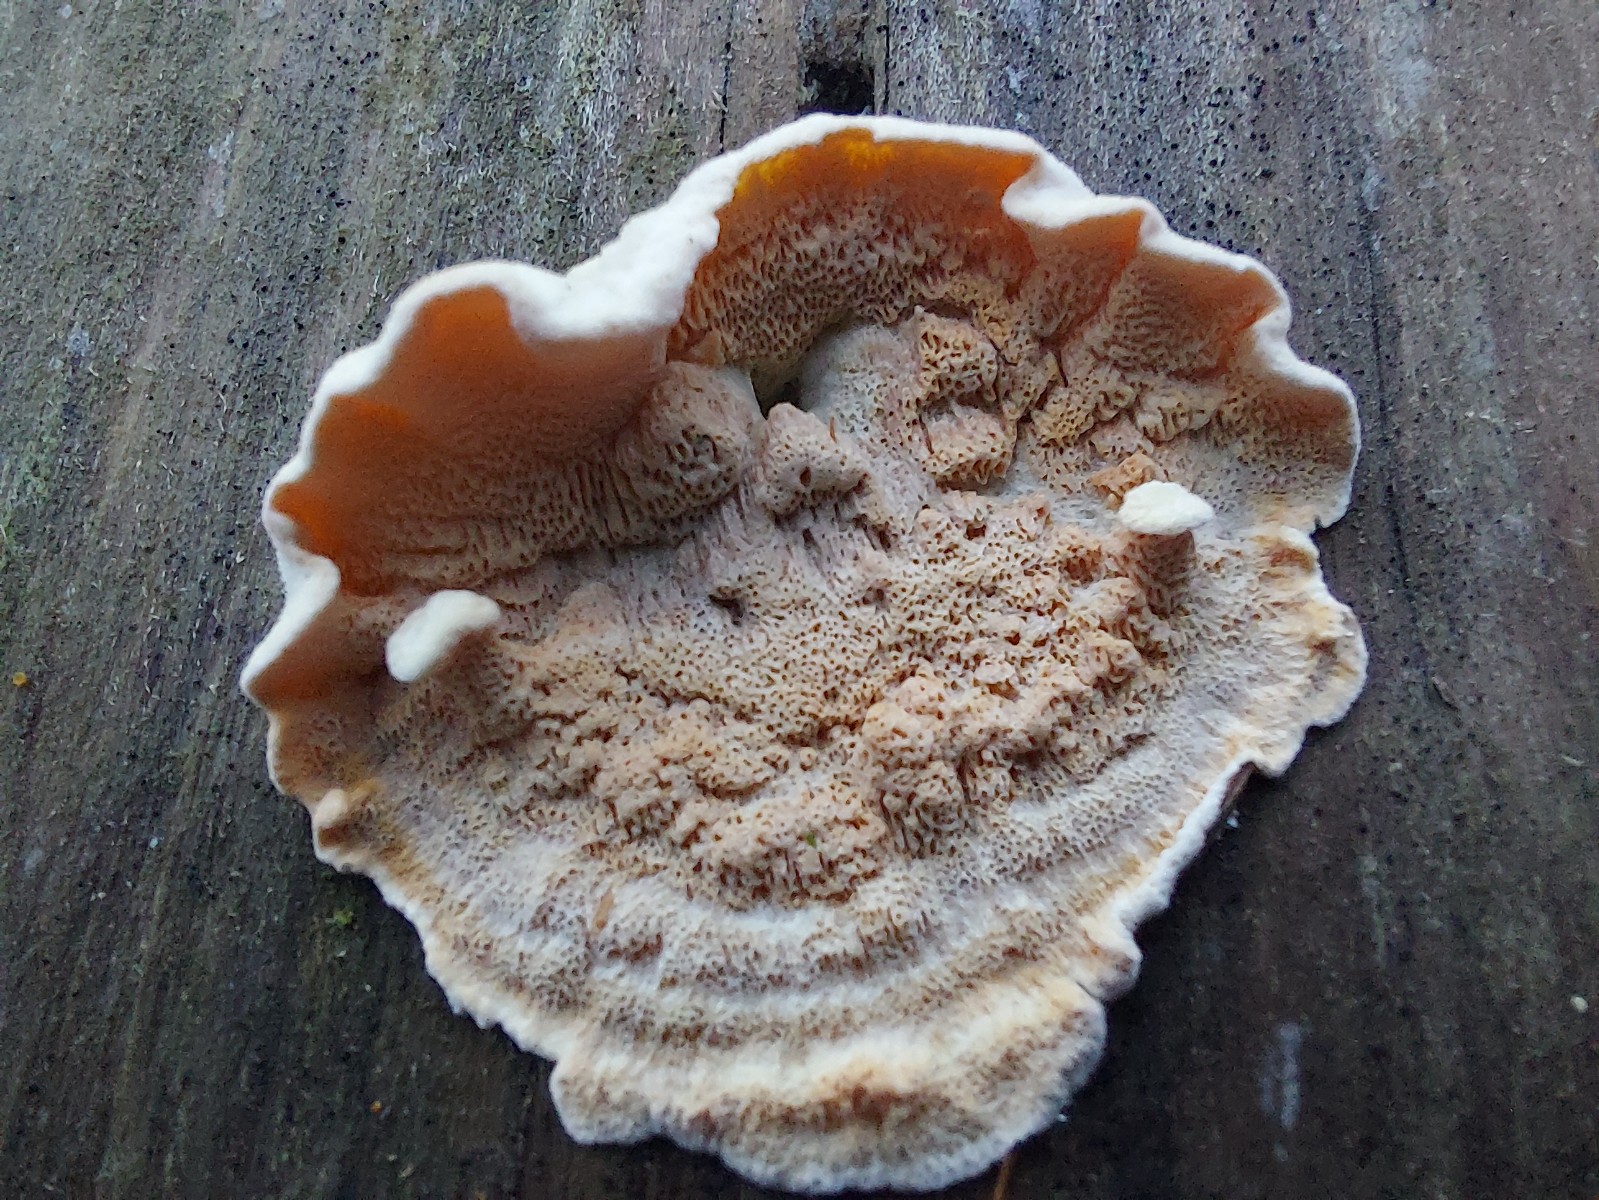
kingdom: Fungi
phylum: Basidiomycota
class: Agaricomycetes
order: Polyporales
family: Incrustoporiaceae
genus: Skeletocutis
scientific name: Skeletocutis amorpha
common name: orange krystalporesvamp
